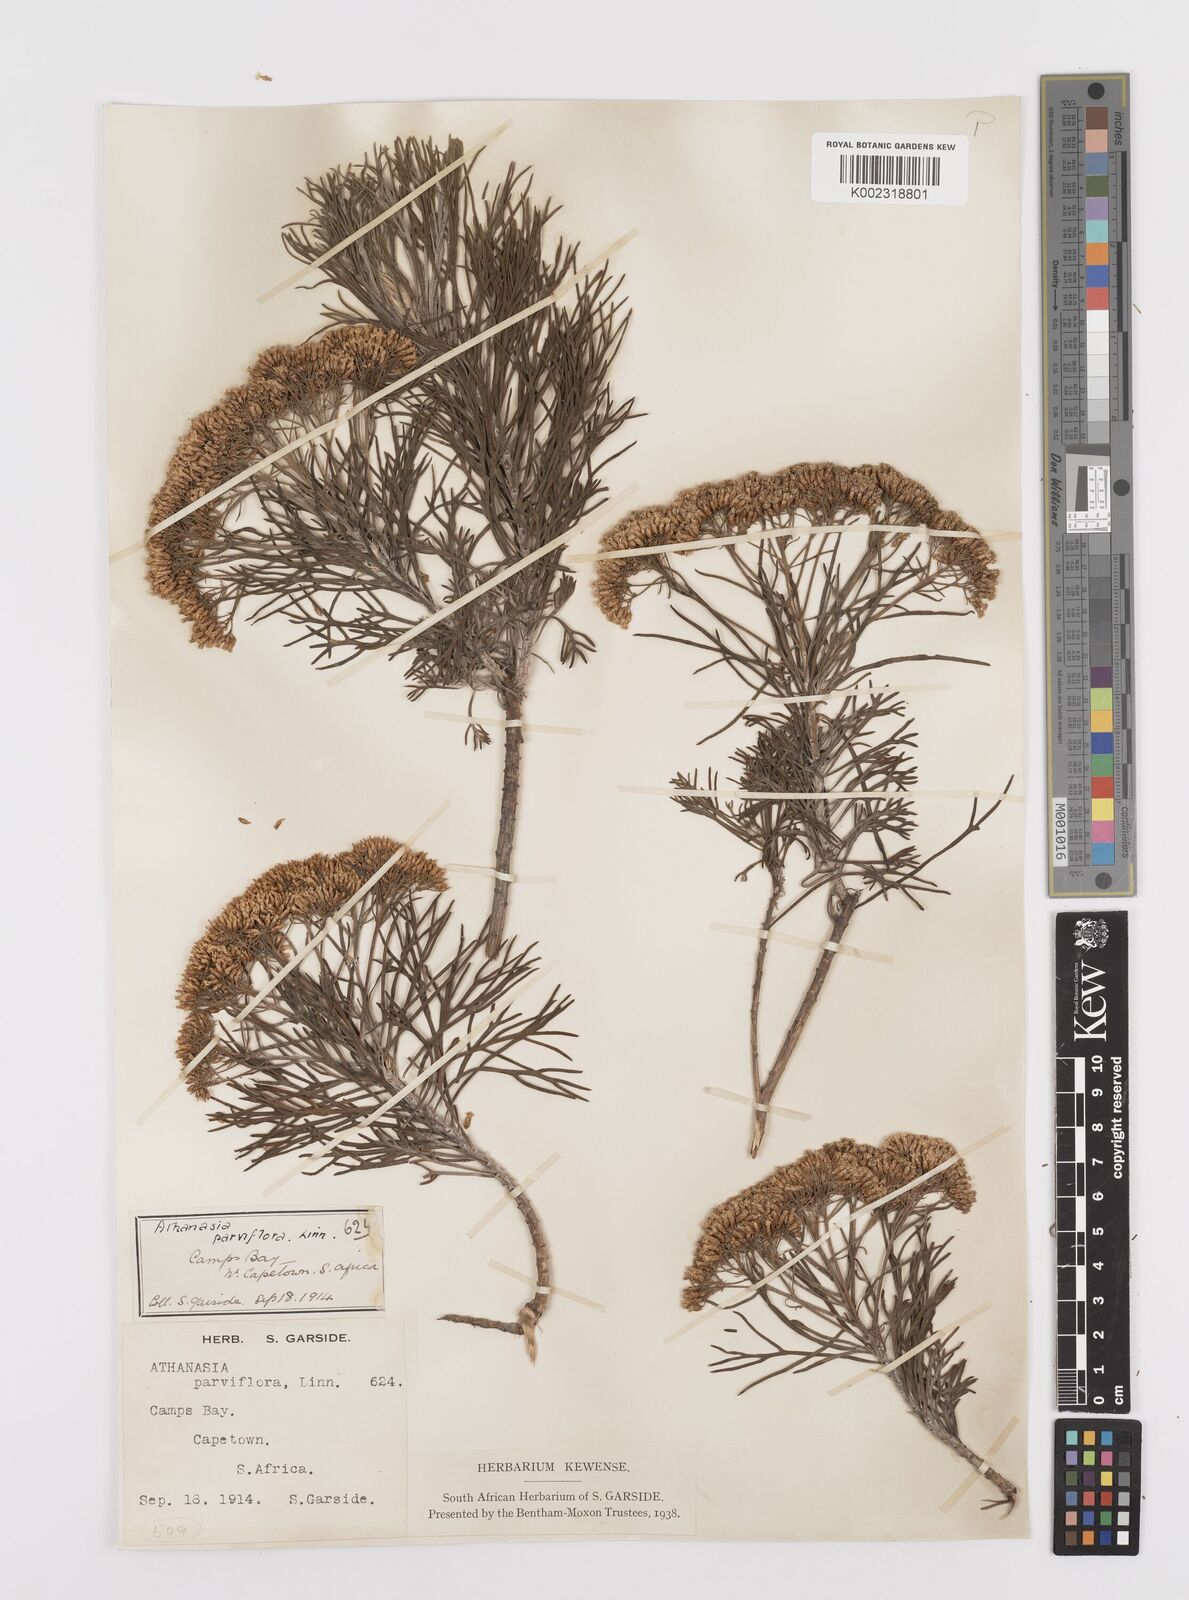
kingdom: Plantae
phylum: Tracheophyta
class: Magnoliopsida
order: Asterales
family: Asteraceae
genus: Hymenolepis
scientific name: Hymenolepis crithmifolia
